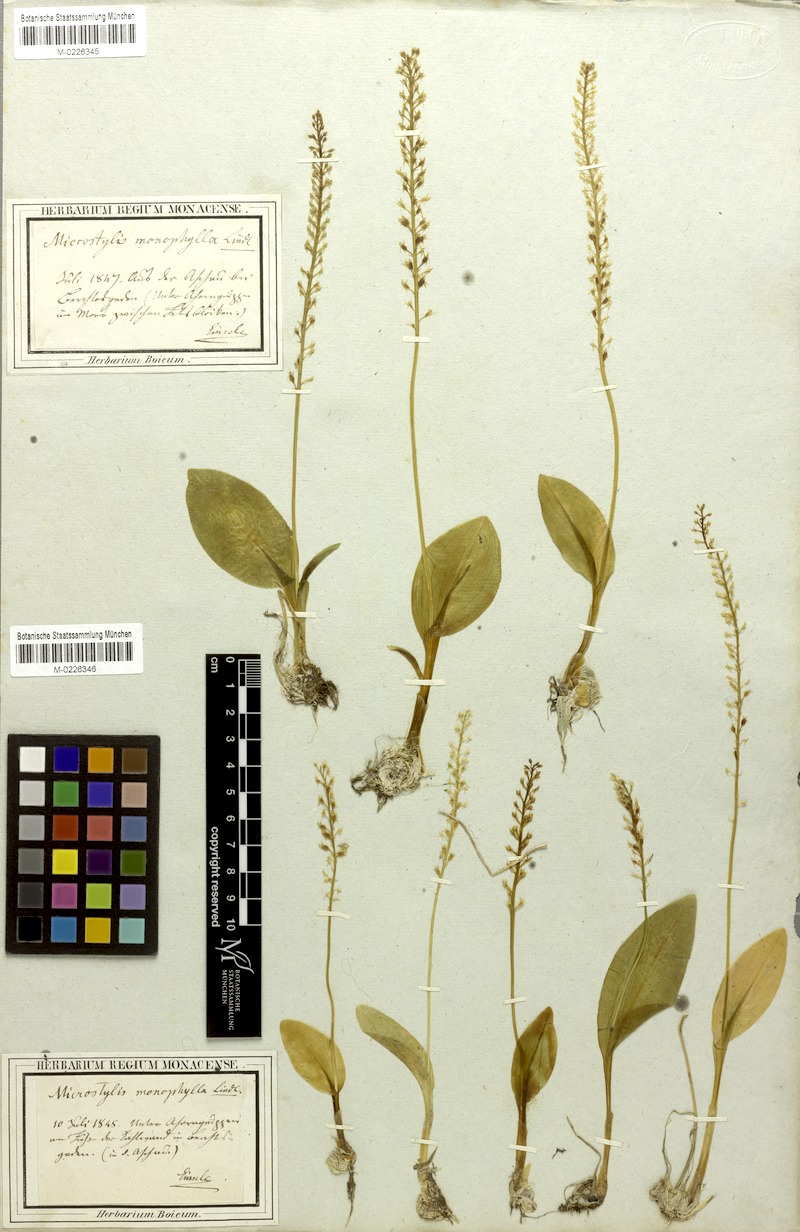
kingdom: Plantae
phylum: Tracheophyta
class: Liliopsida
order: Asparagales
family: Orchidaceae
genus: Malaxis
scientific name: Malaxis monophyllos
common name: White adder's-mouth
